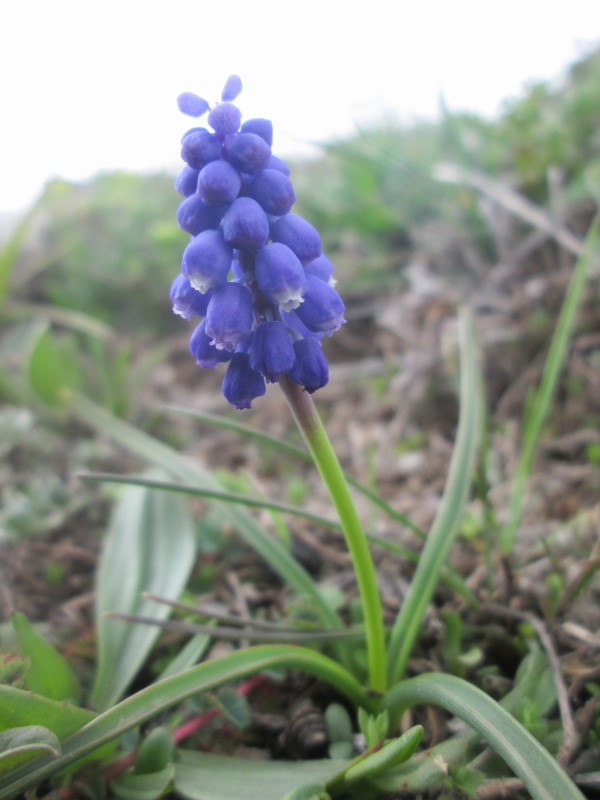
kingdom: Plantae
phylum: Tracheophyta
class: Liliopsida
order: Asparagales
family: Asparagaceae
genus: Muscari
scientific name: Muscari armeniacum
